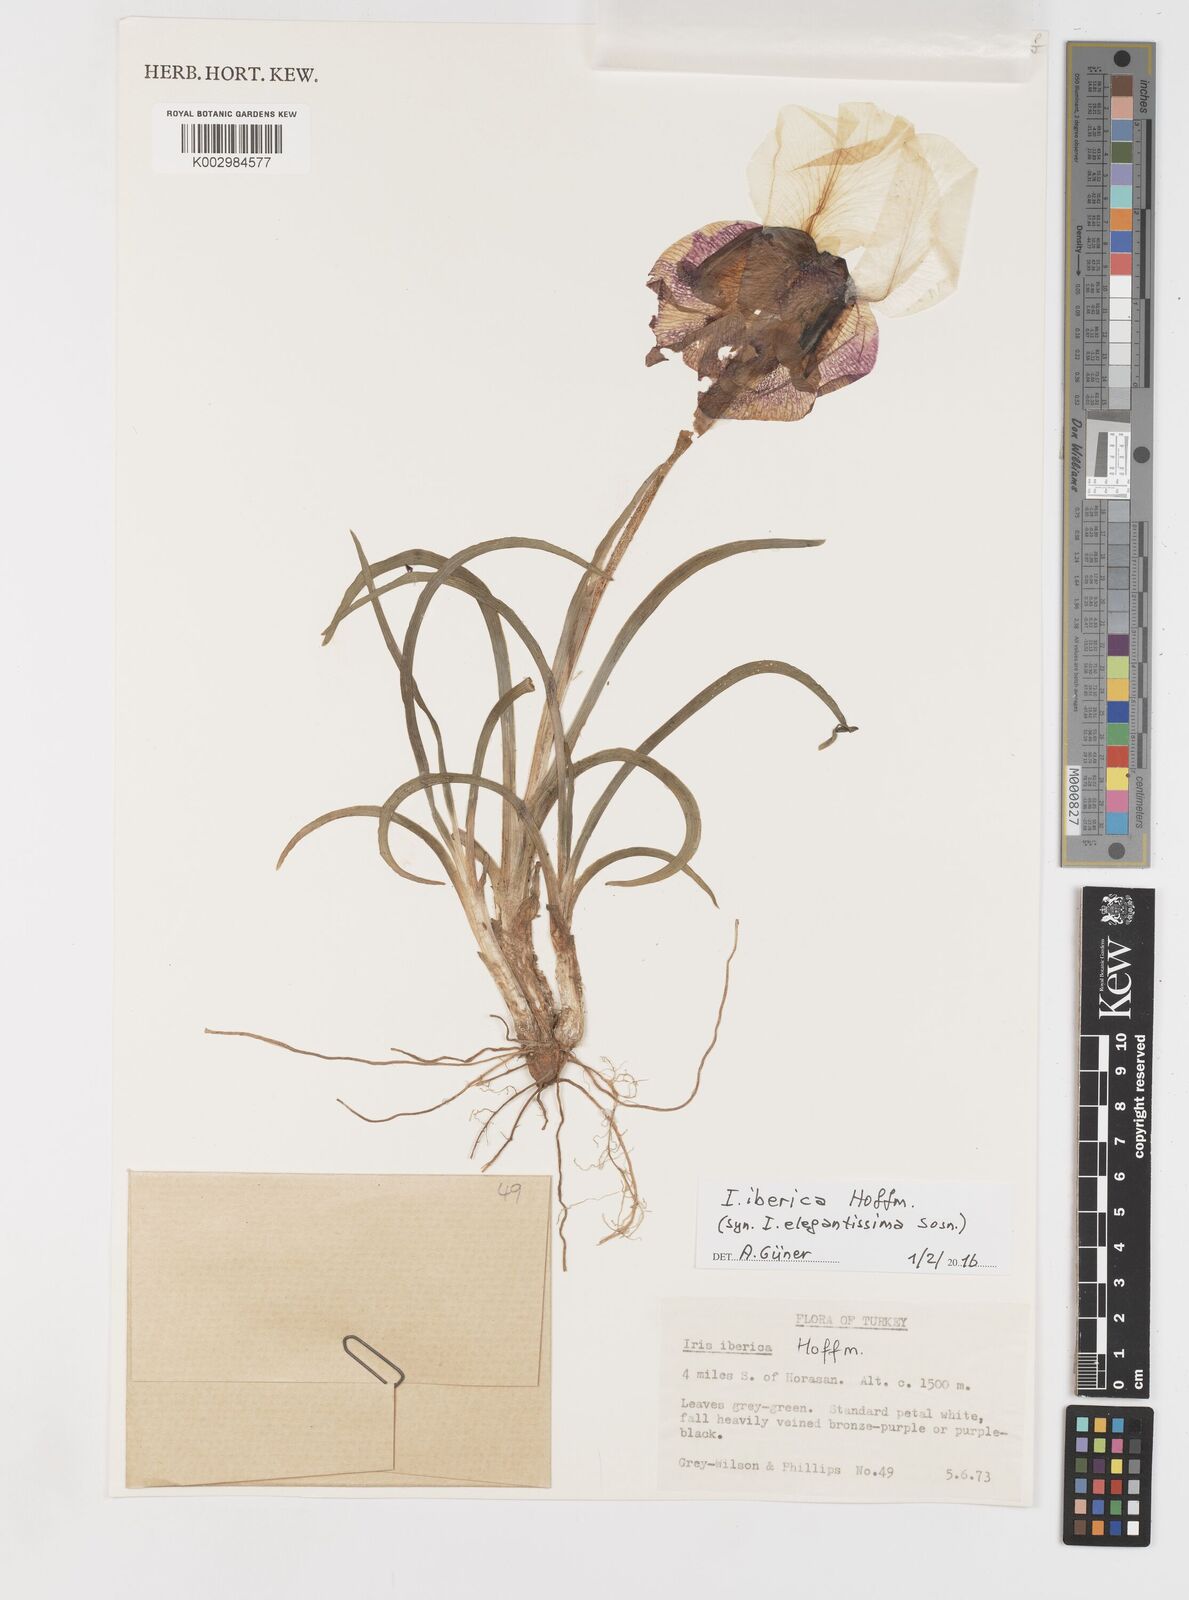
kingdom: Plantae
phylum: Tracheophyta
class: Liliopsida
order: Asparagales
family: Iridaceae
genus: Iris
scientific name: Iris iberica
